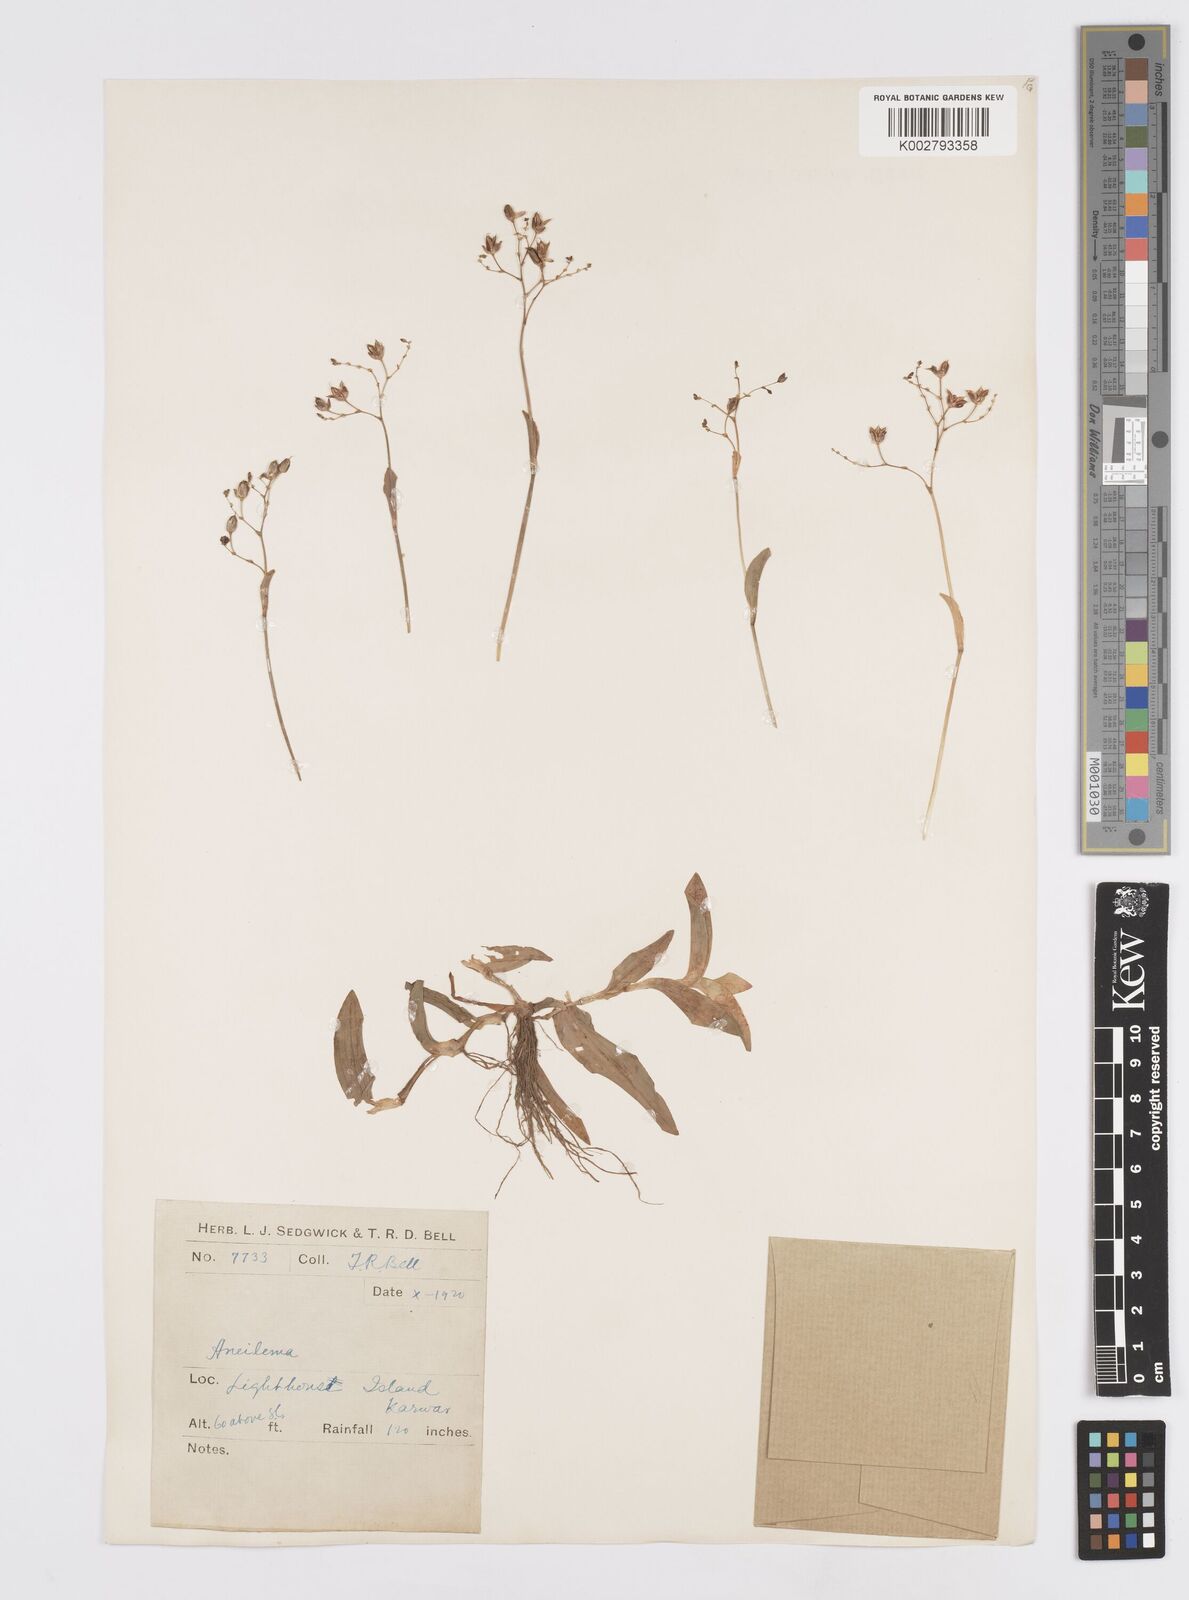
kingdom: Plantae
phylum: Tracheophyta
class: Liliopsida
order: Commelinales
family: Commelinaceae
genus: Murdannia
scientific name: Murdannia
